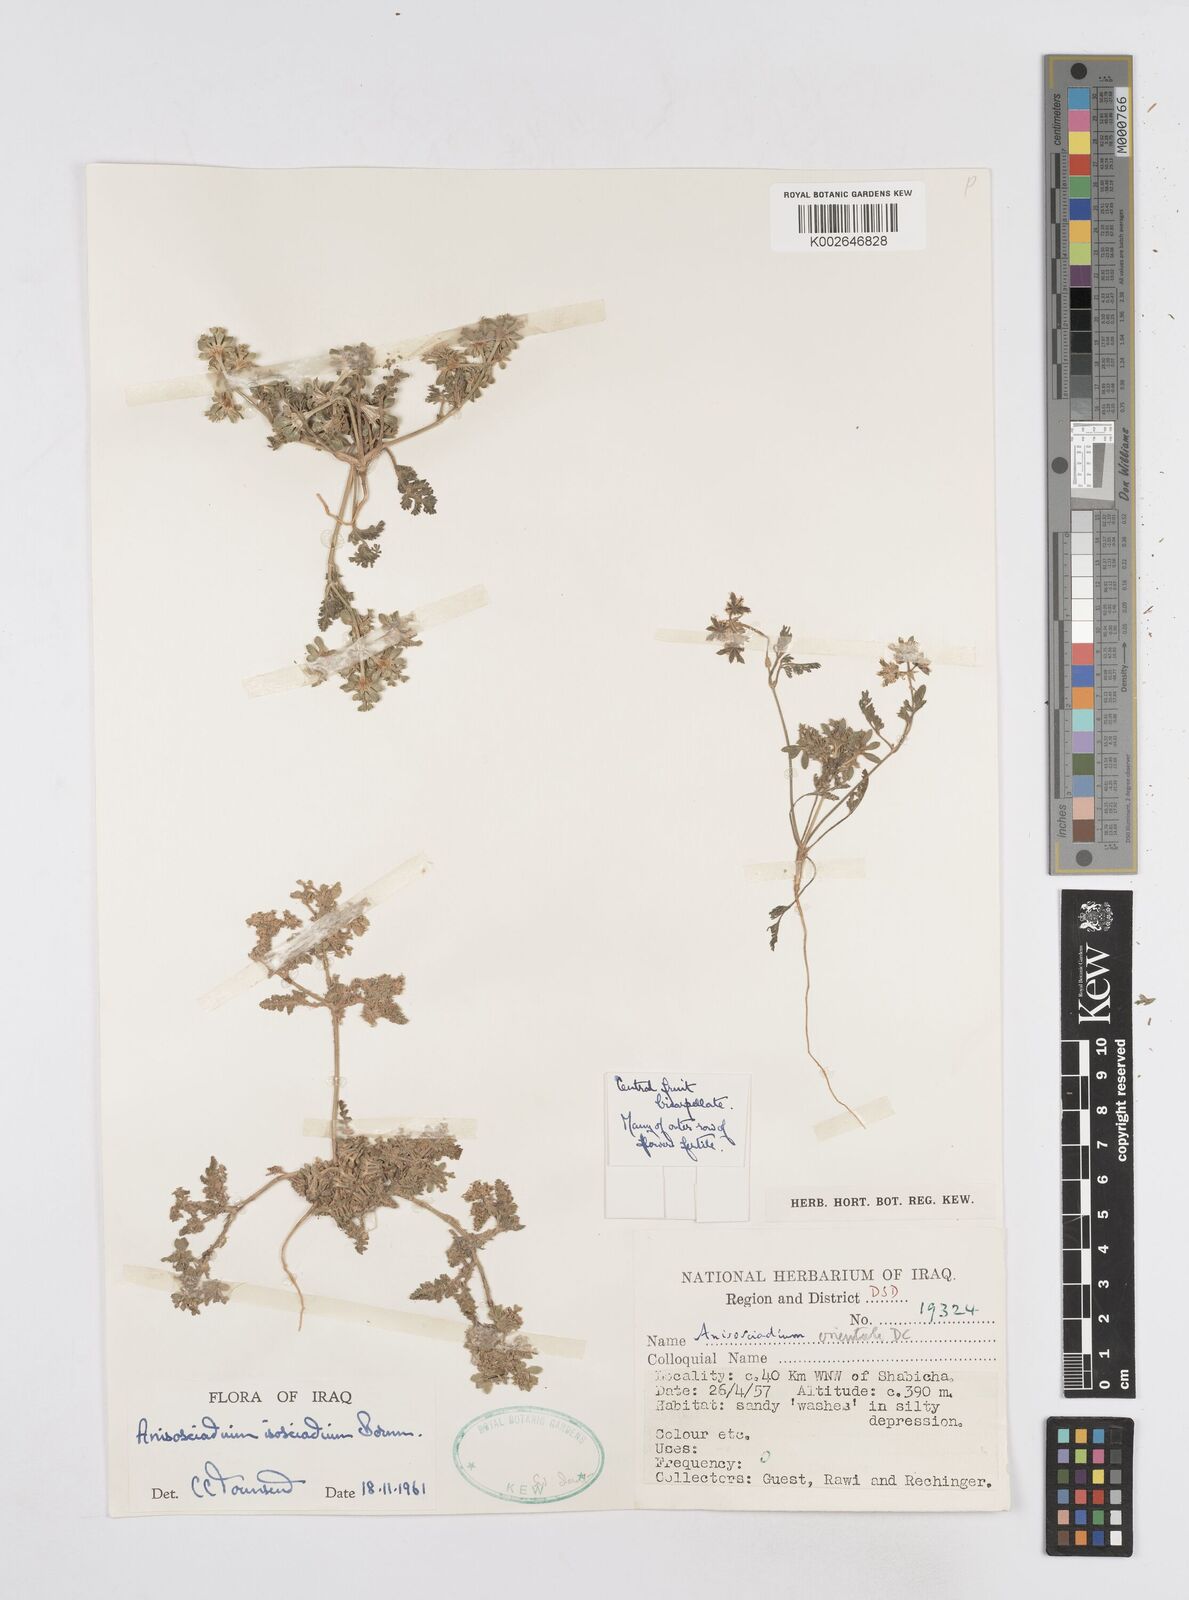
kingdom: Plantae
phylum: Tracheophyta
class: Magnoliopsida
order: Apiales
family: Apiaceae
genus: Anisosciadium
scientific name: Anisosciadium isosciadium
